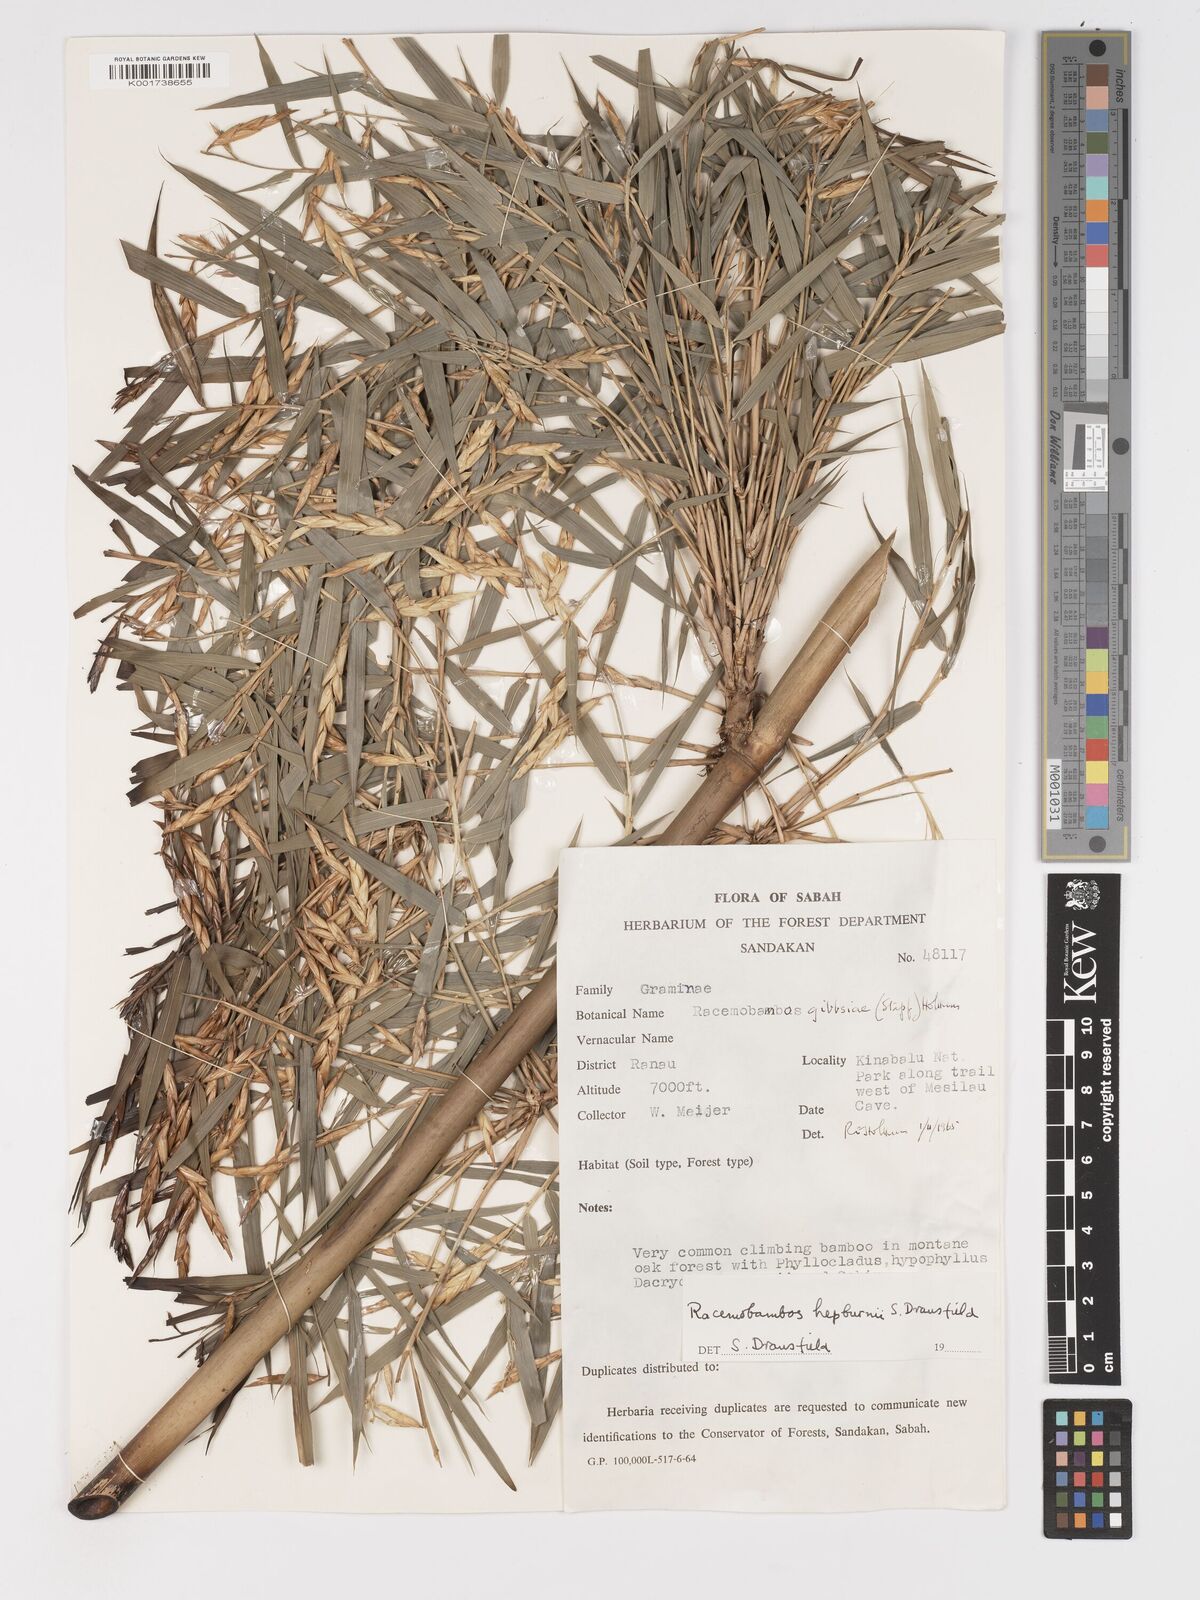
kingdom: Plantae
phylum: Tracheophyta
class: Liliopsida
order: Poales
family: Poaceae
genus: Racemobambos
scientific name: Racemobambos hepburnii
